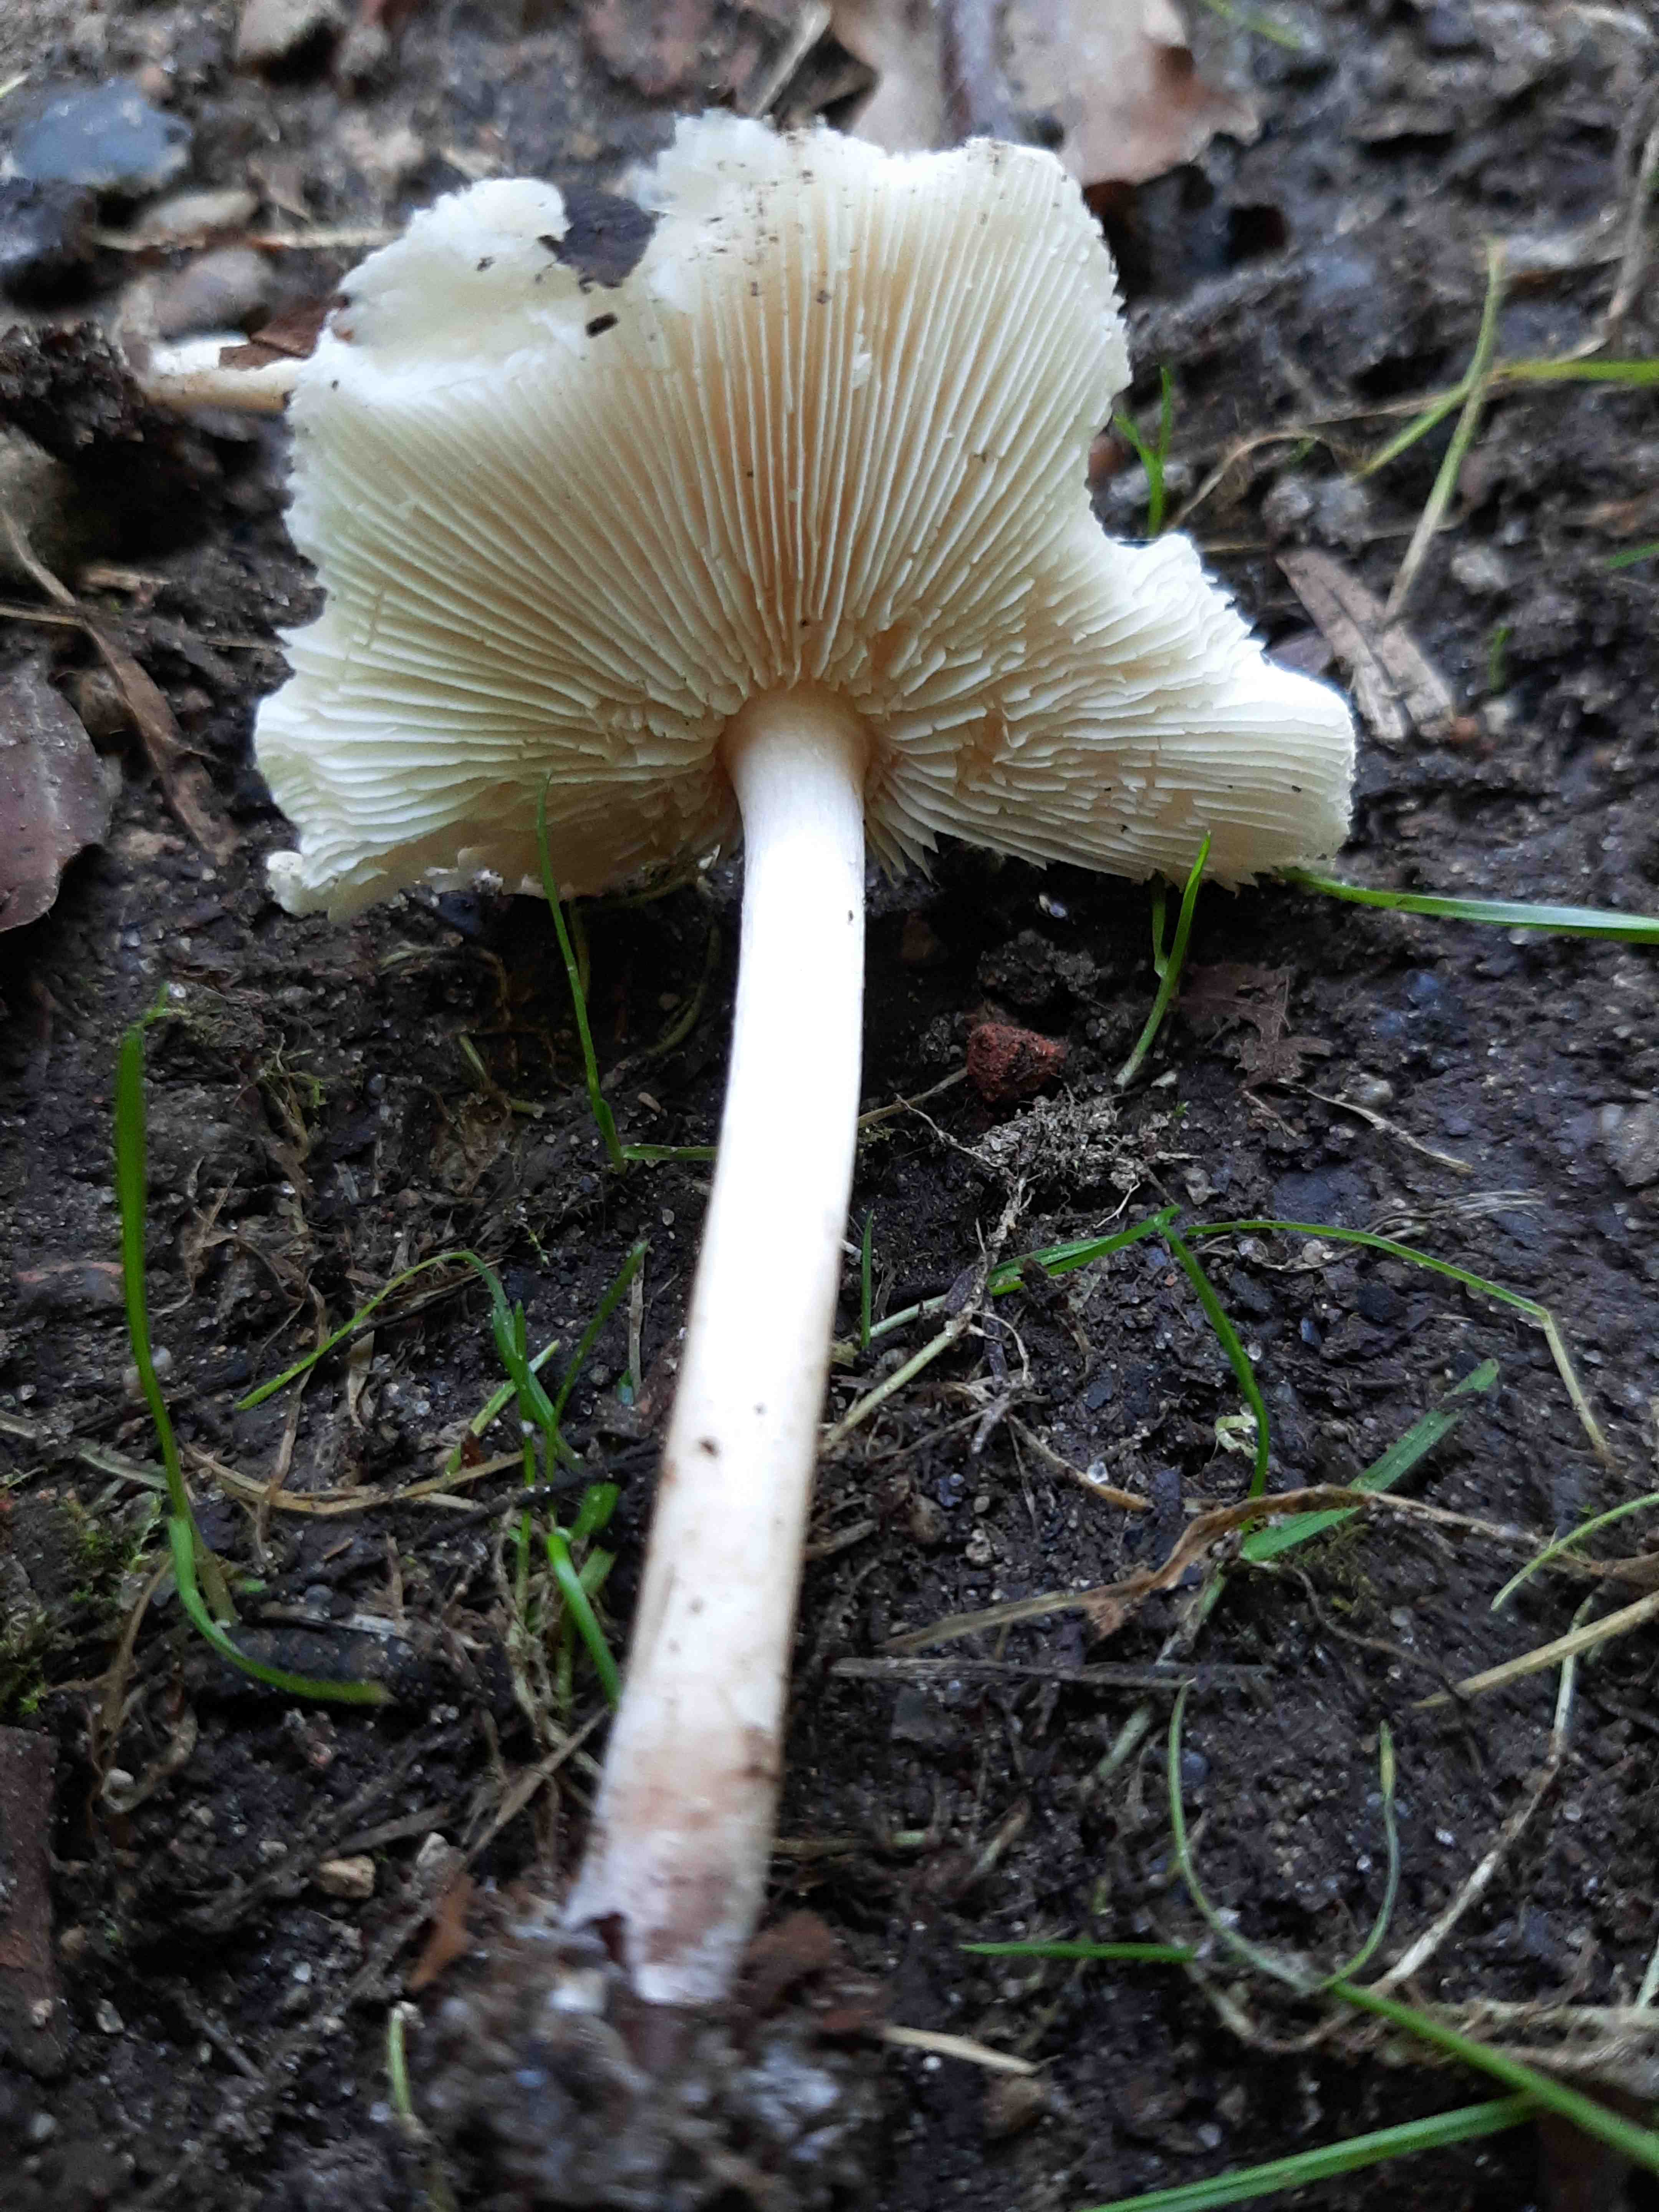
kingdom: Fungi
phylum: Basidiomycota
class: Agaricomycetes
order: Agaricales
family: Agaricaceae
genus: Lepiota
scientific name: Lepiota cristata
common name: stinkende parasolhat
